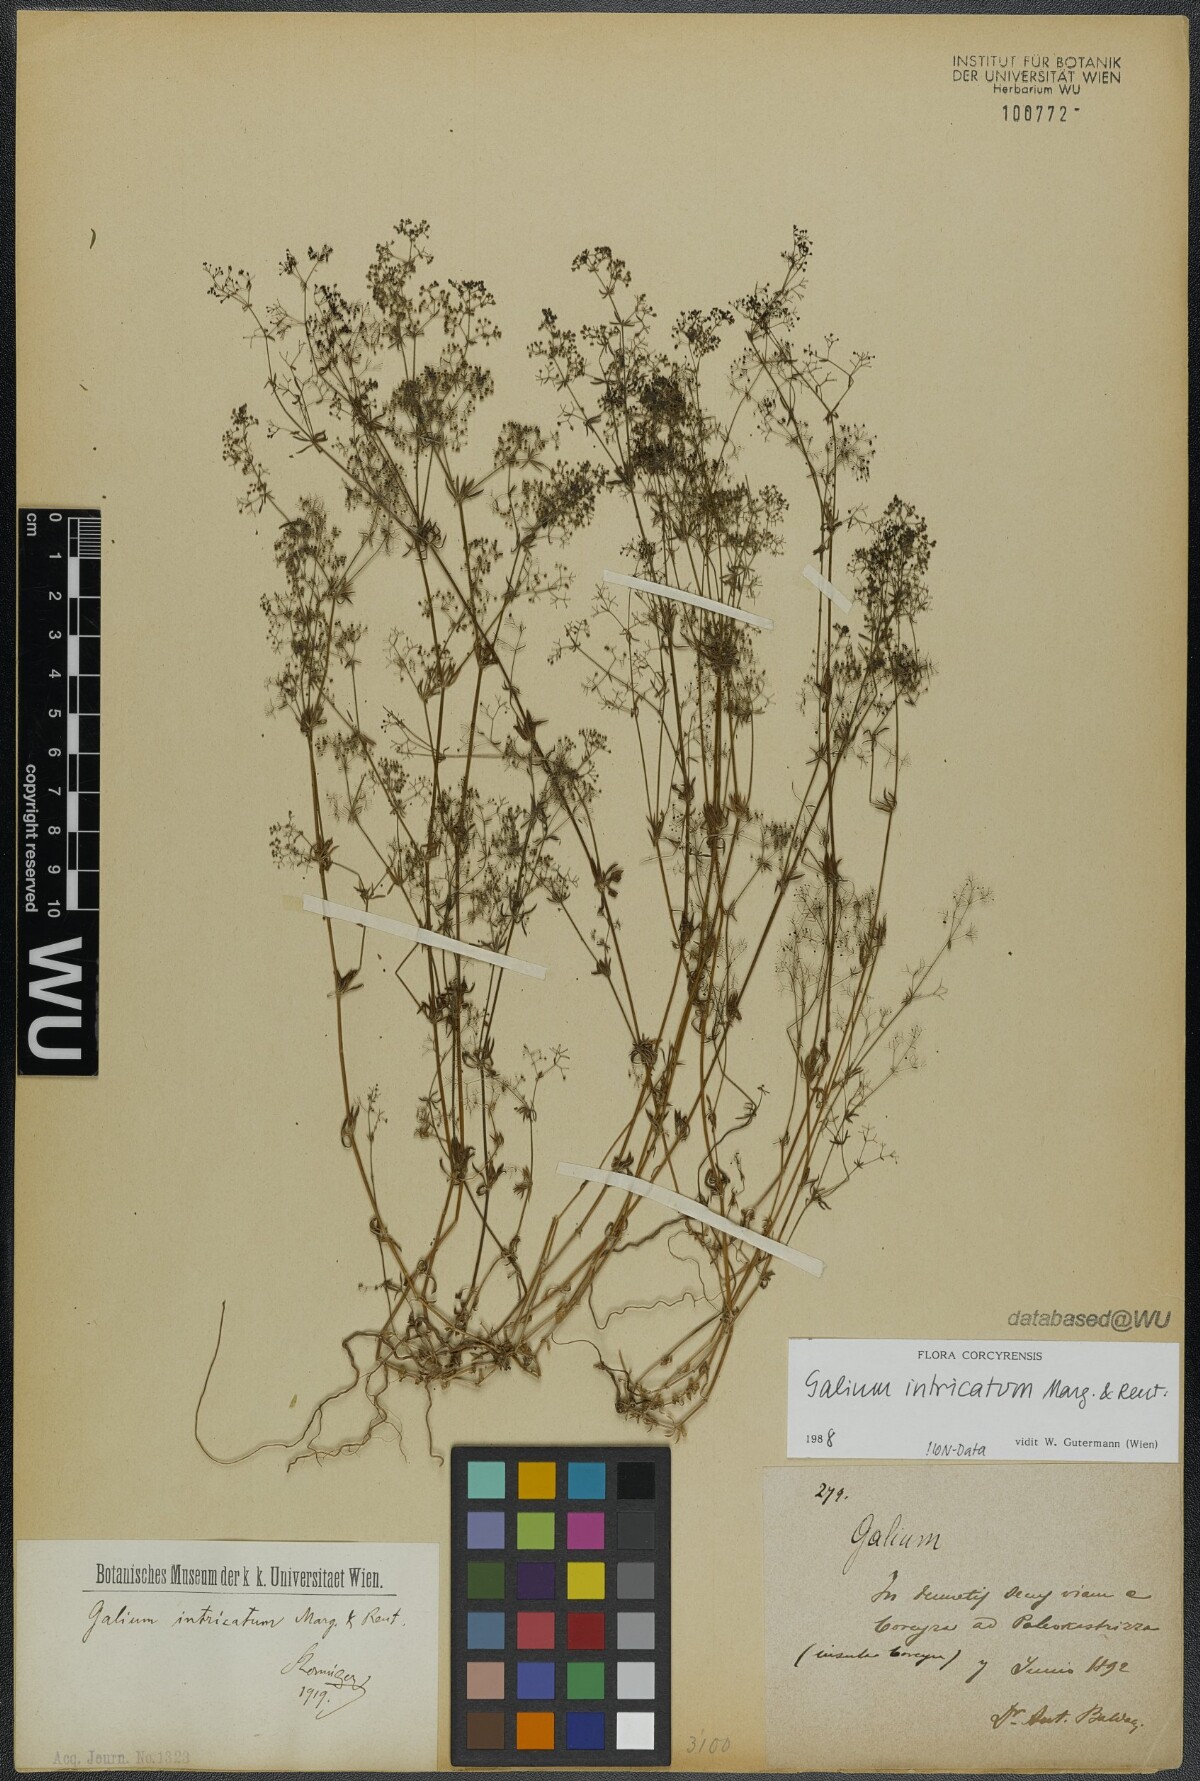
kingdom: Plantae
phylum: Tracheophyta
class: Magnoliopsida
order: Gentianales
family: Rubiaceae
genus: Galium
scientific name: Galium intricatum
